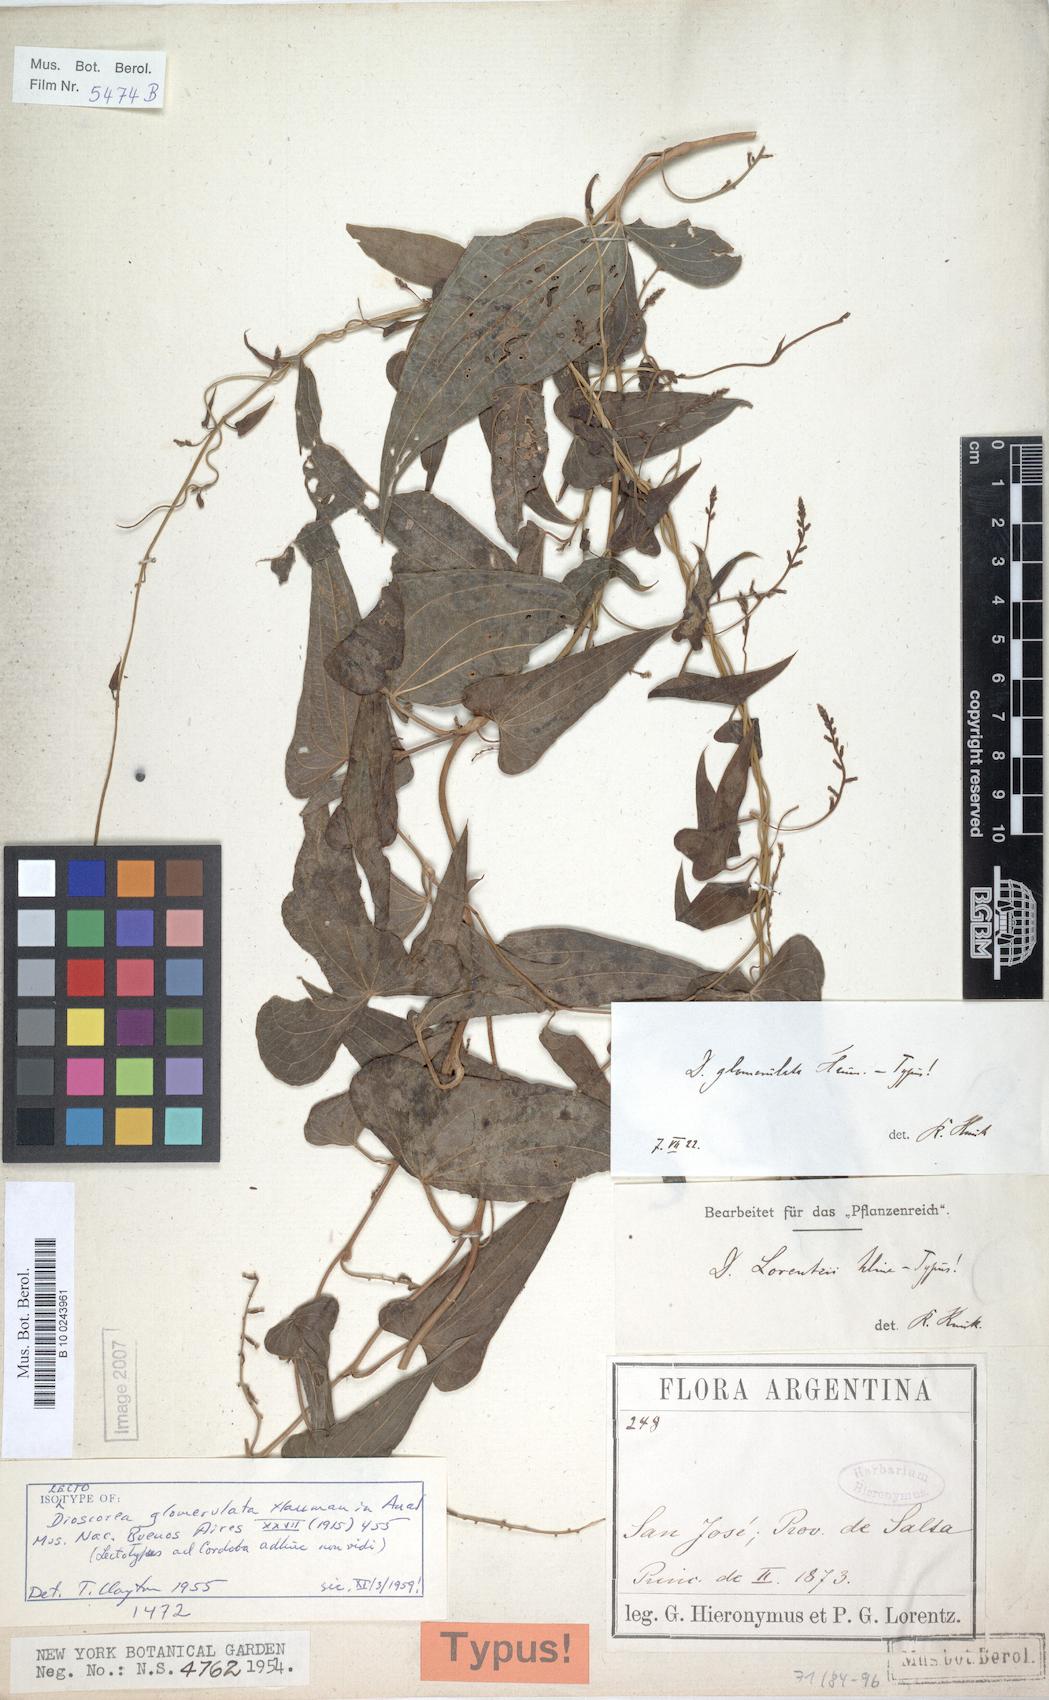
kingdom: Plantae
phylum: Tracheophyta
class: Liliopsida
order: Dioscoreales
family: Dioscoreaceae
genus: Dioscorea
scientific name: Dioscorea glomerulata
